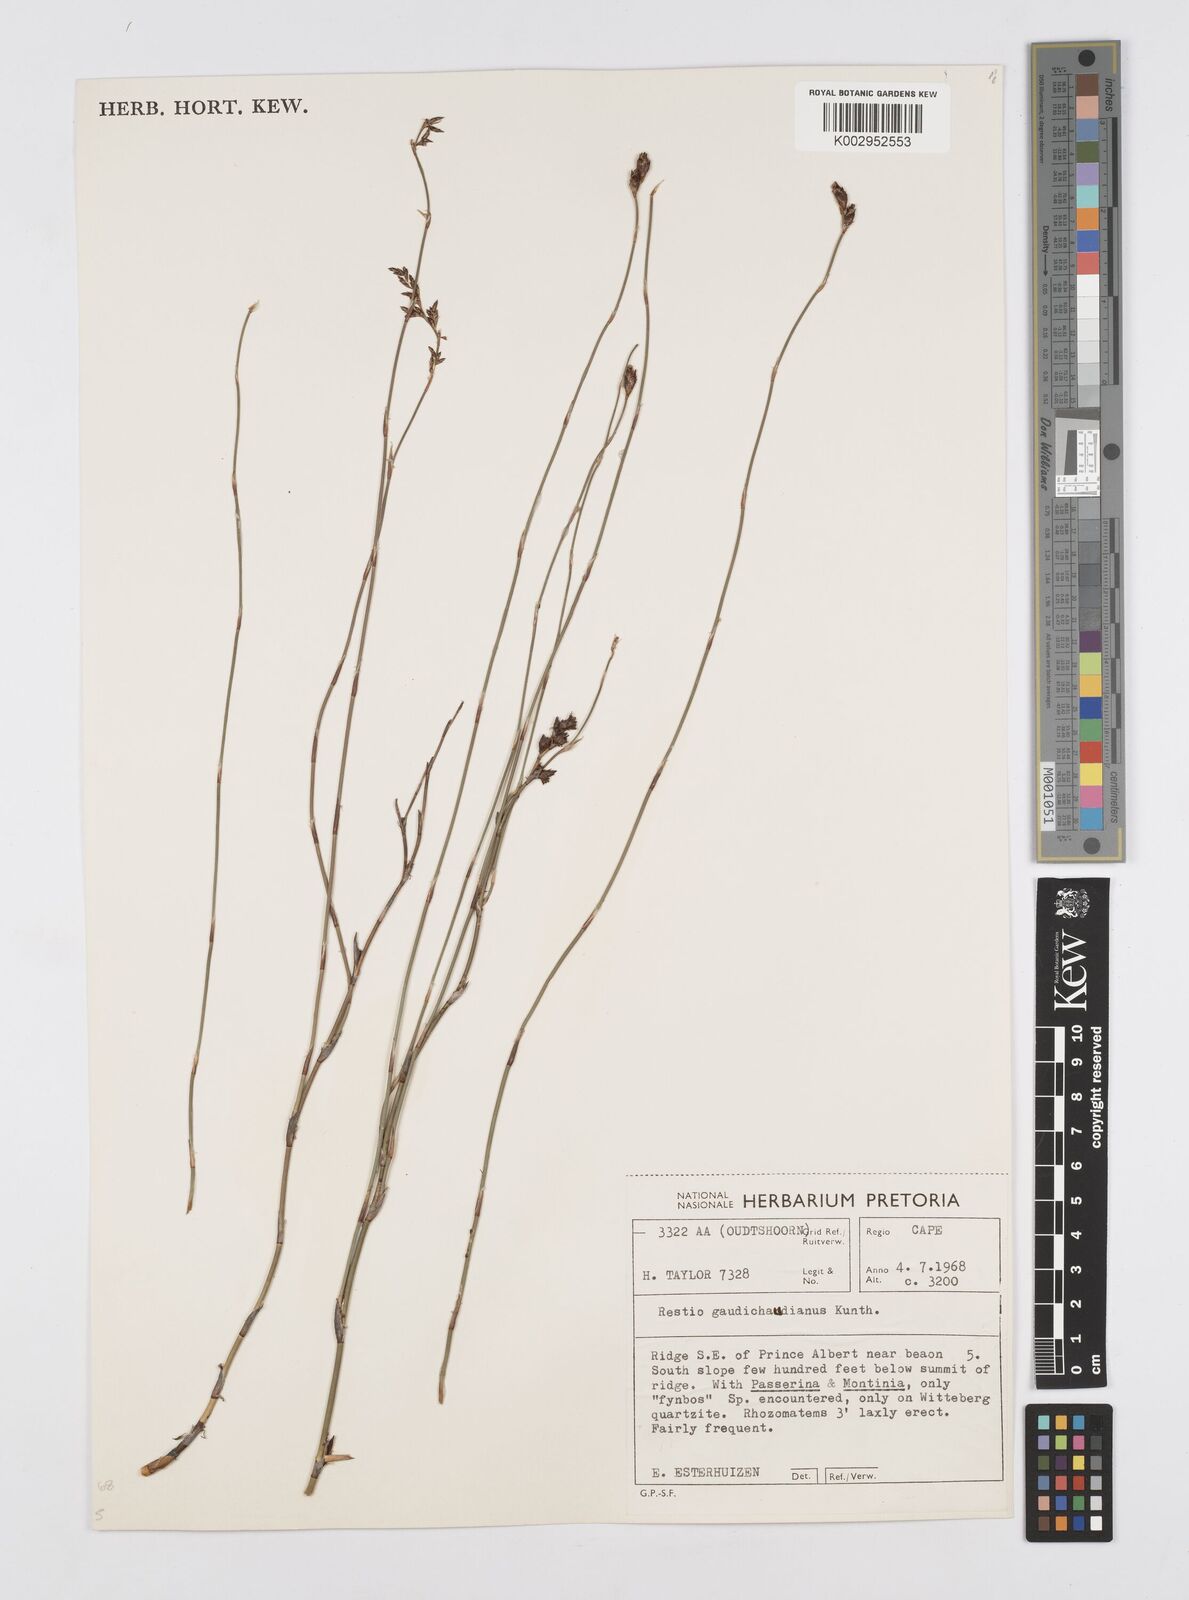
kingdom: Plantae
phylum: Tracheophyta
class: Liliopsida
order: Poales
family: Restionaceae
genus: Restio
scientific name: Restio gaudichaudianus
